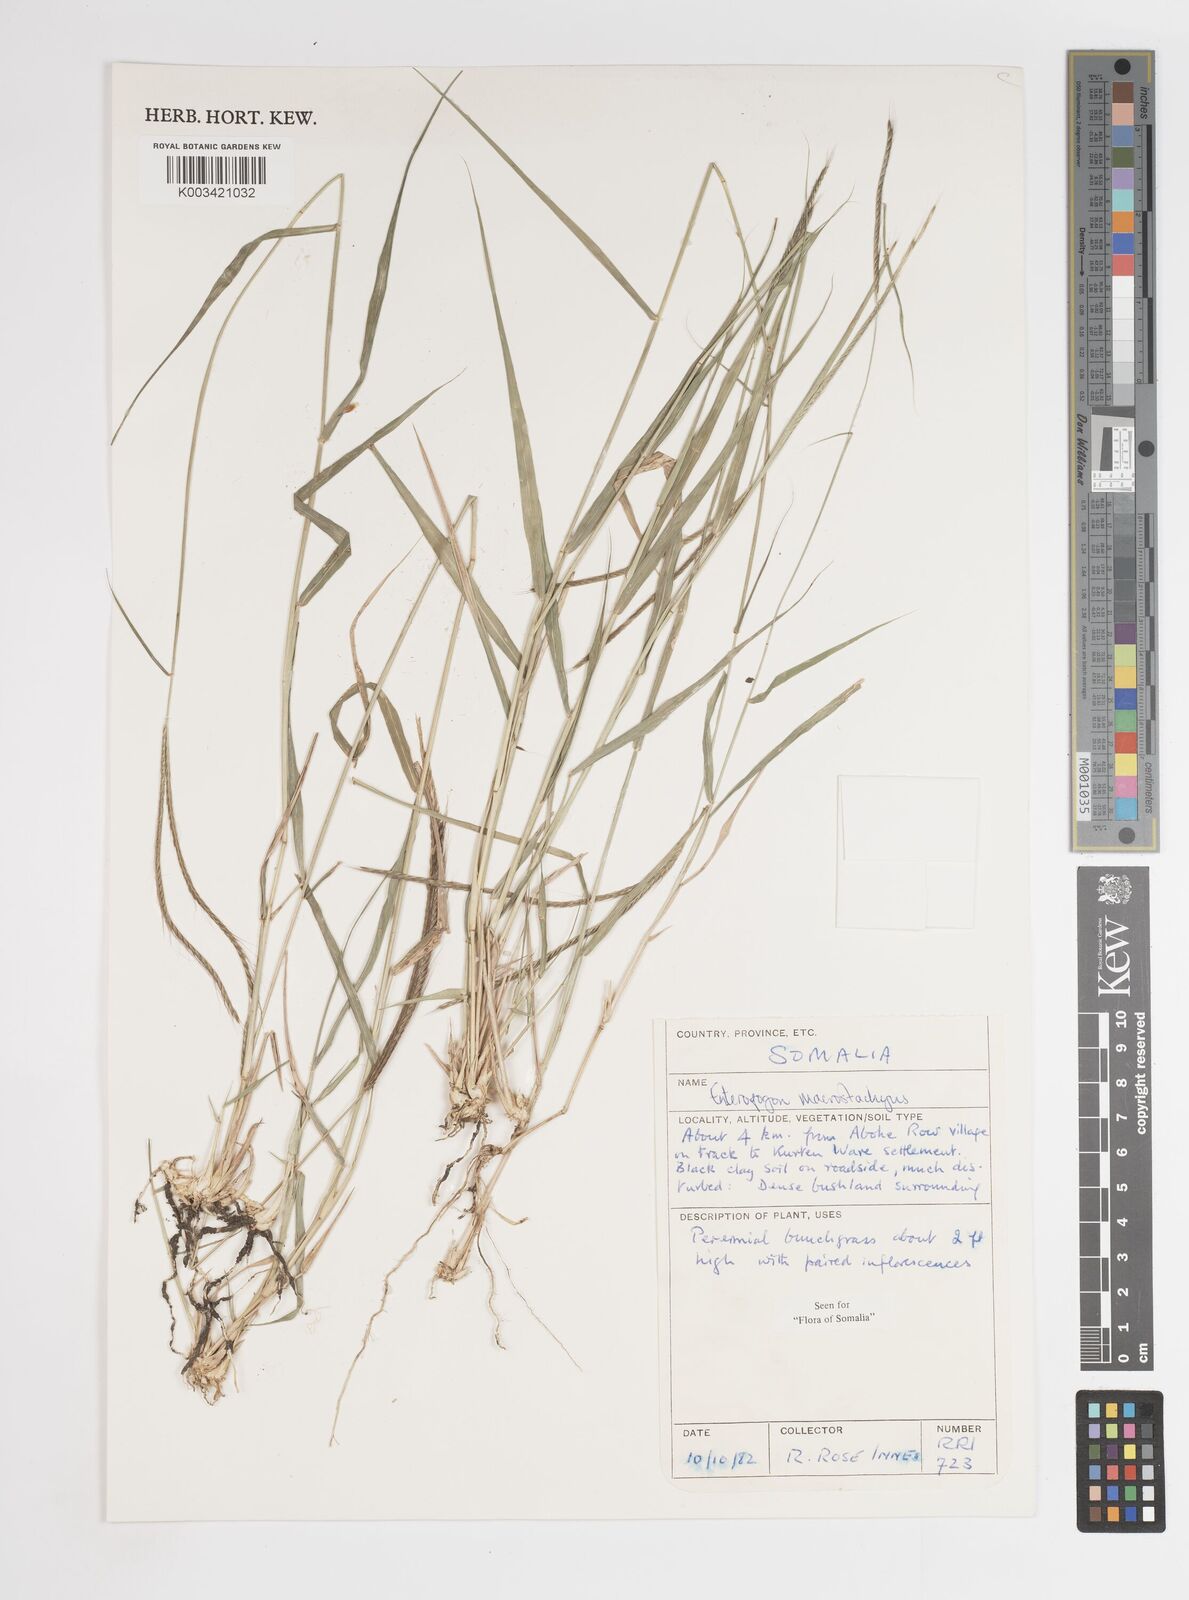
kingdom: Plantae
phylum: Tracheophyta
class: Liliopsida
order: Poales
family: Poaceae
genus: Enteropogon
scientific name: Enteropogon macrostachyus
